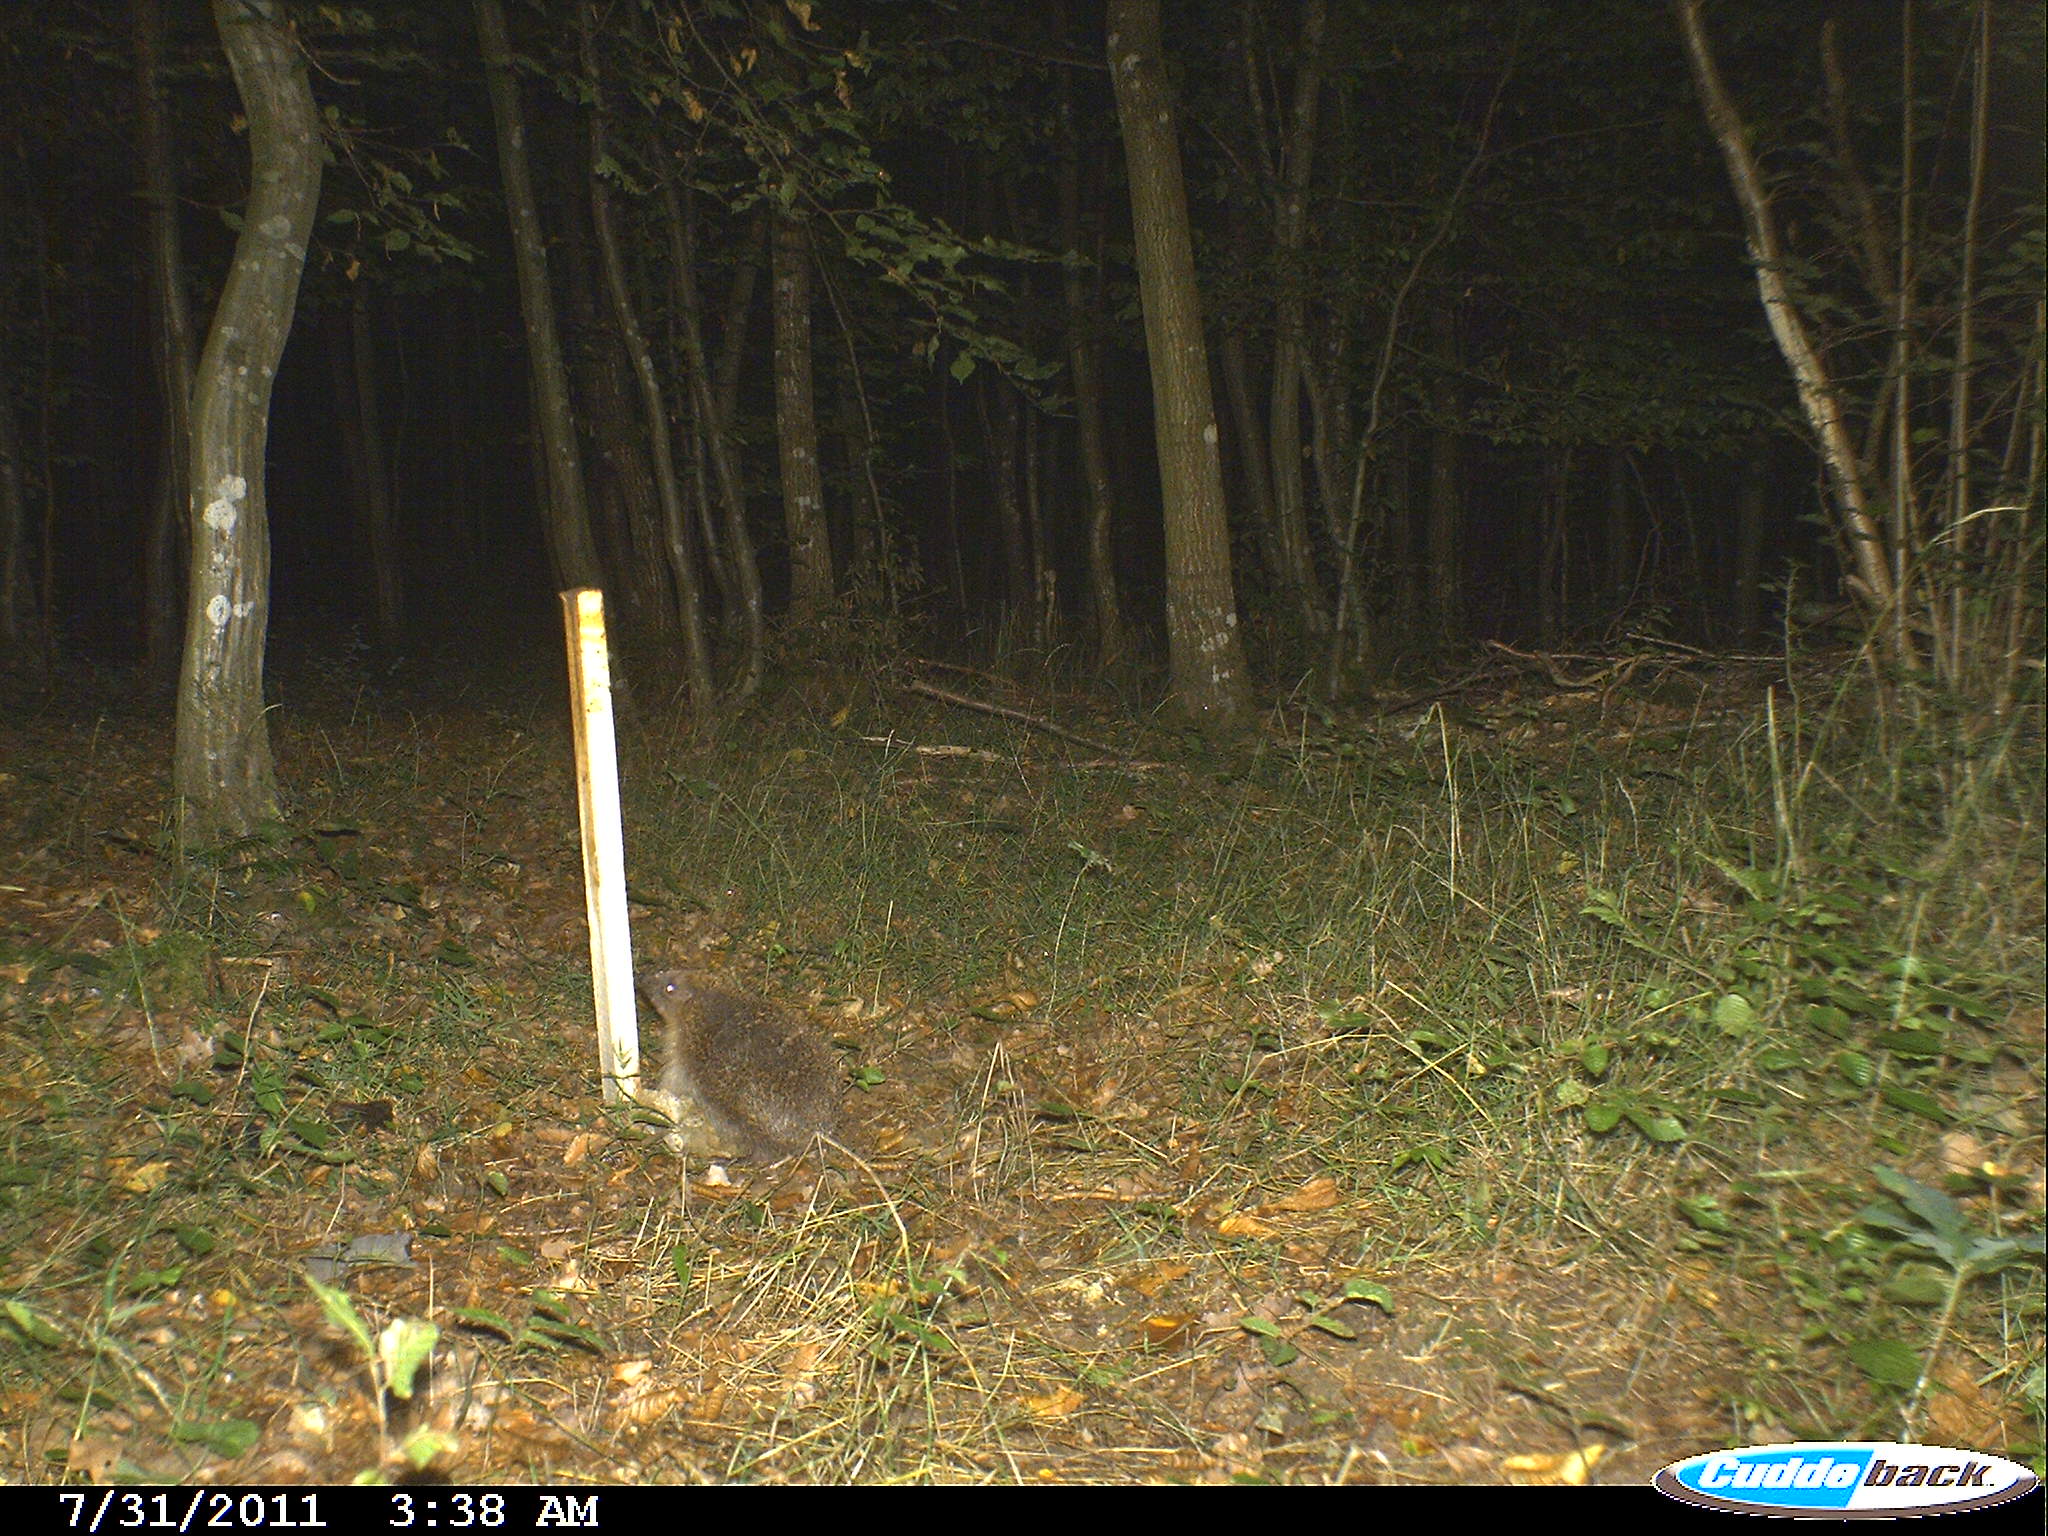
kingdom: Animalia
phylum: Chordata
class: Mammalia
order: Erinaceomorpha
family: Erinaceidae
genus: Erinaceus
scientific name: Erinaceus europaeus
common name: West european hedgehog
